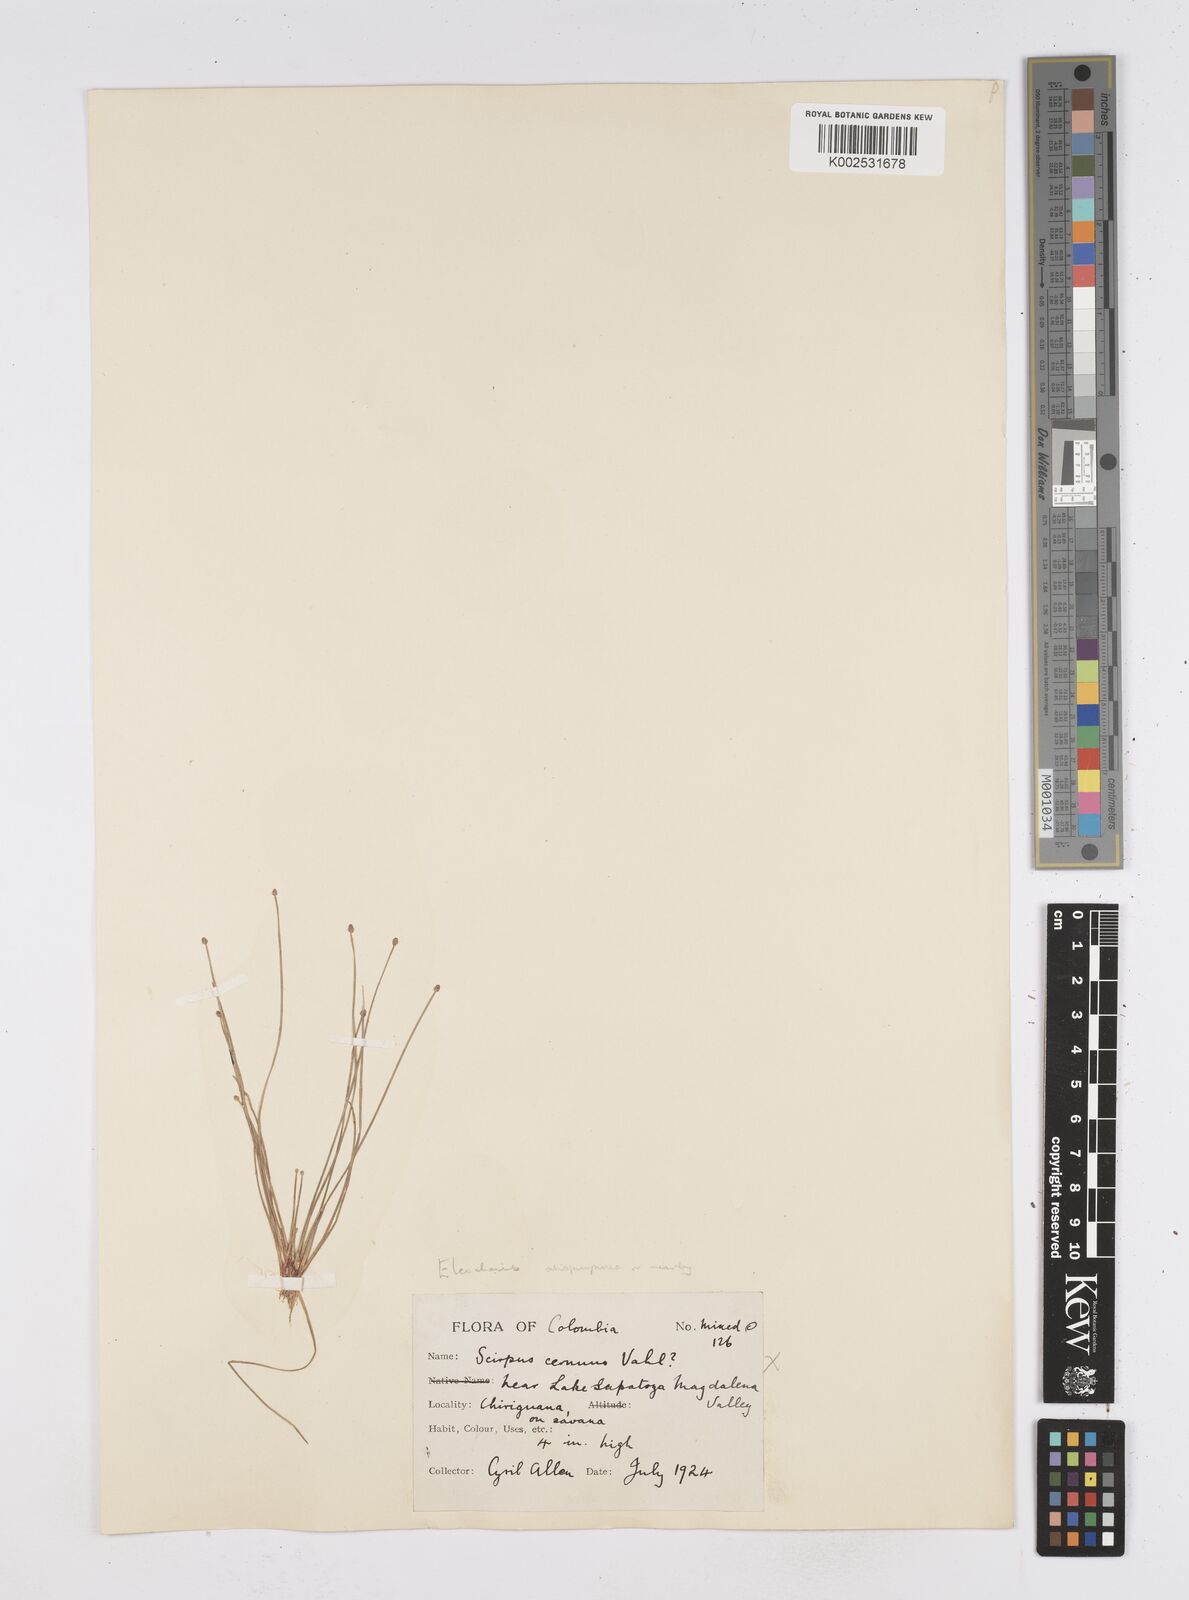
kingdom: Plantae
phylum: Tracheophyta
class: Liliopsida
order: Poales
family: Cyperaceae
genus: Eleocharis
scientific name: Eleocharis
